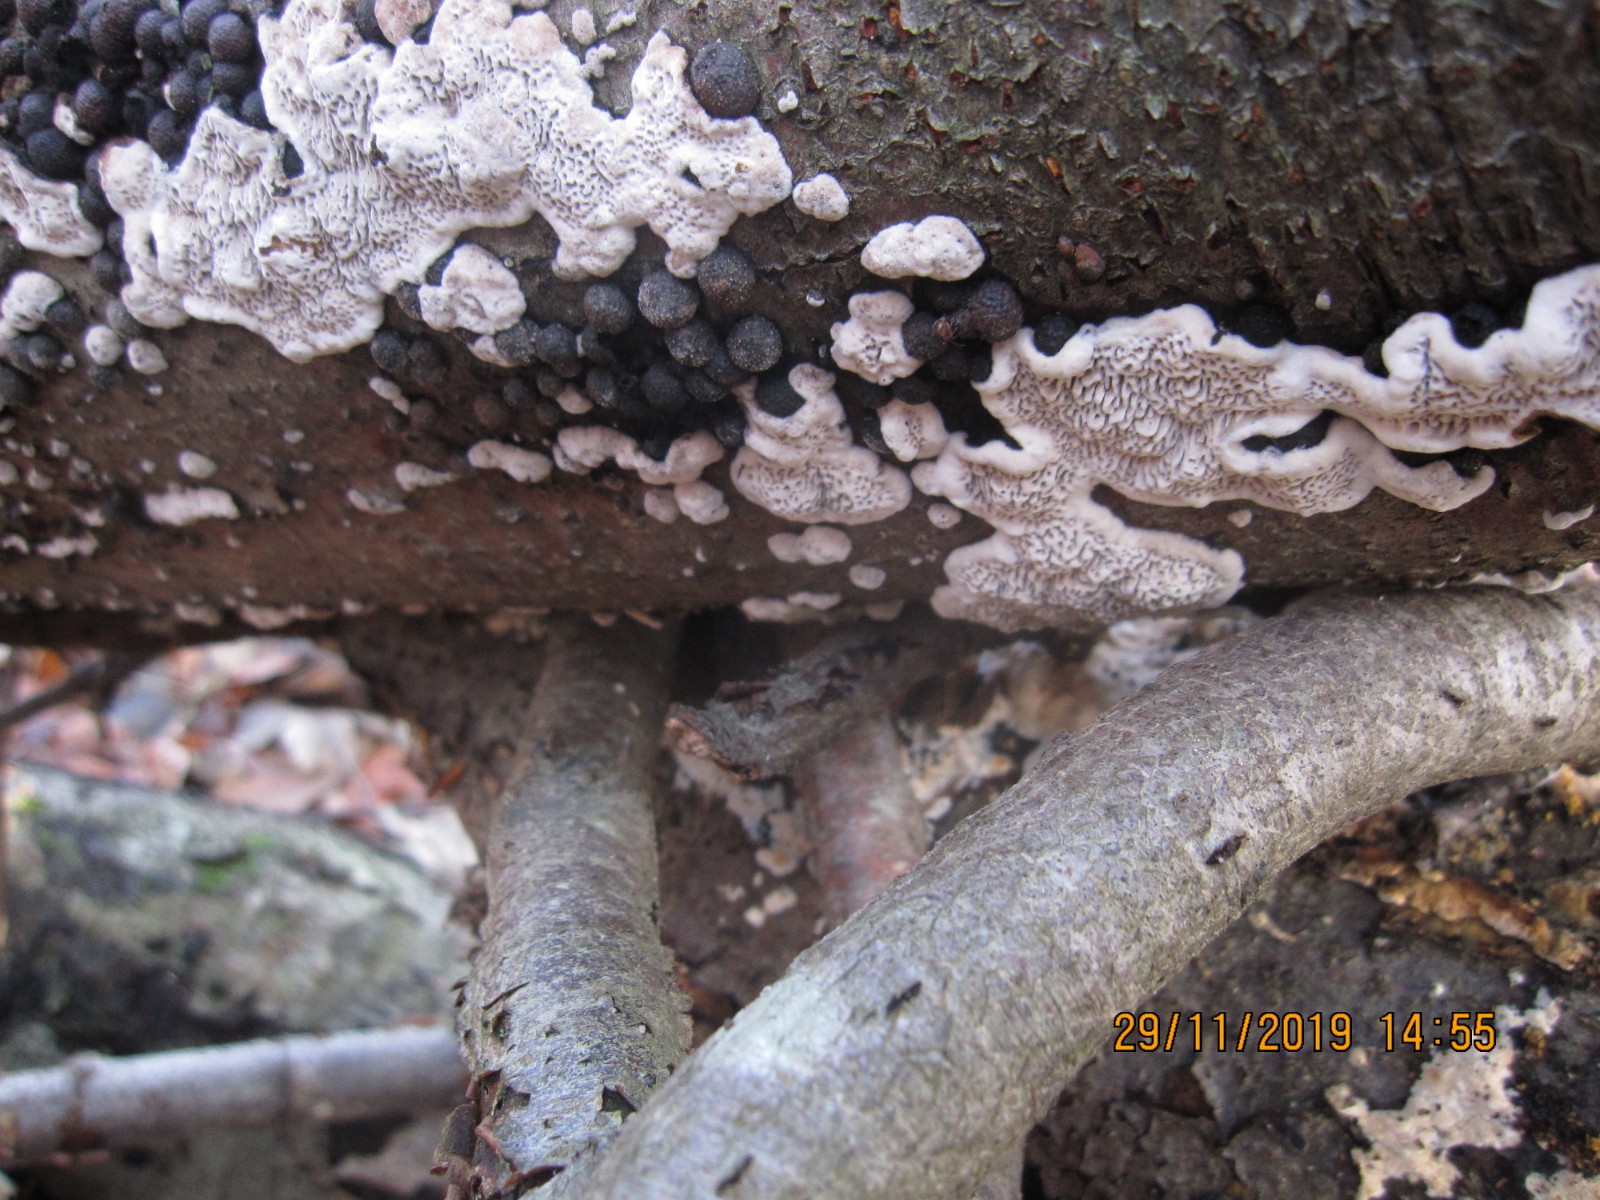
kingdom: Fungi
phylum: Basidiomycota
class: Agaricomycetes
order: Polyporales
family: Polyporaceae
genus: Podofomes
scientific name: Podofomes mollis
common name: blød begporesvamp
